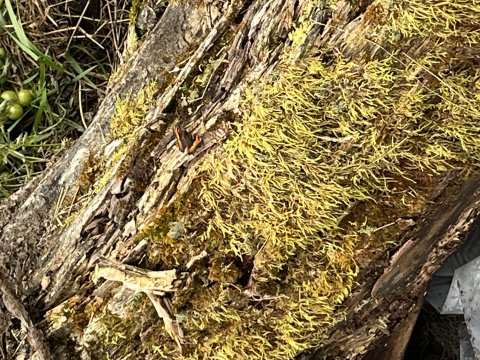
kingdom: Animalia
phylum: Arthropoda
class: Insecta
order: Lepidoptera
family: Nymphalidae
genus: Aglais
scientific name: Aglais milberti
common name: Milbert's Tortoiseshell
